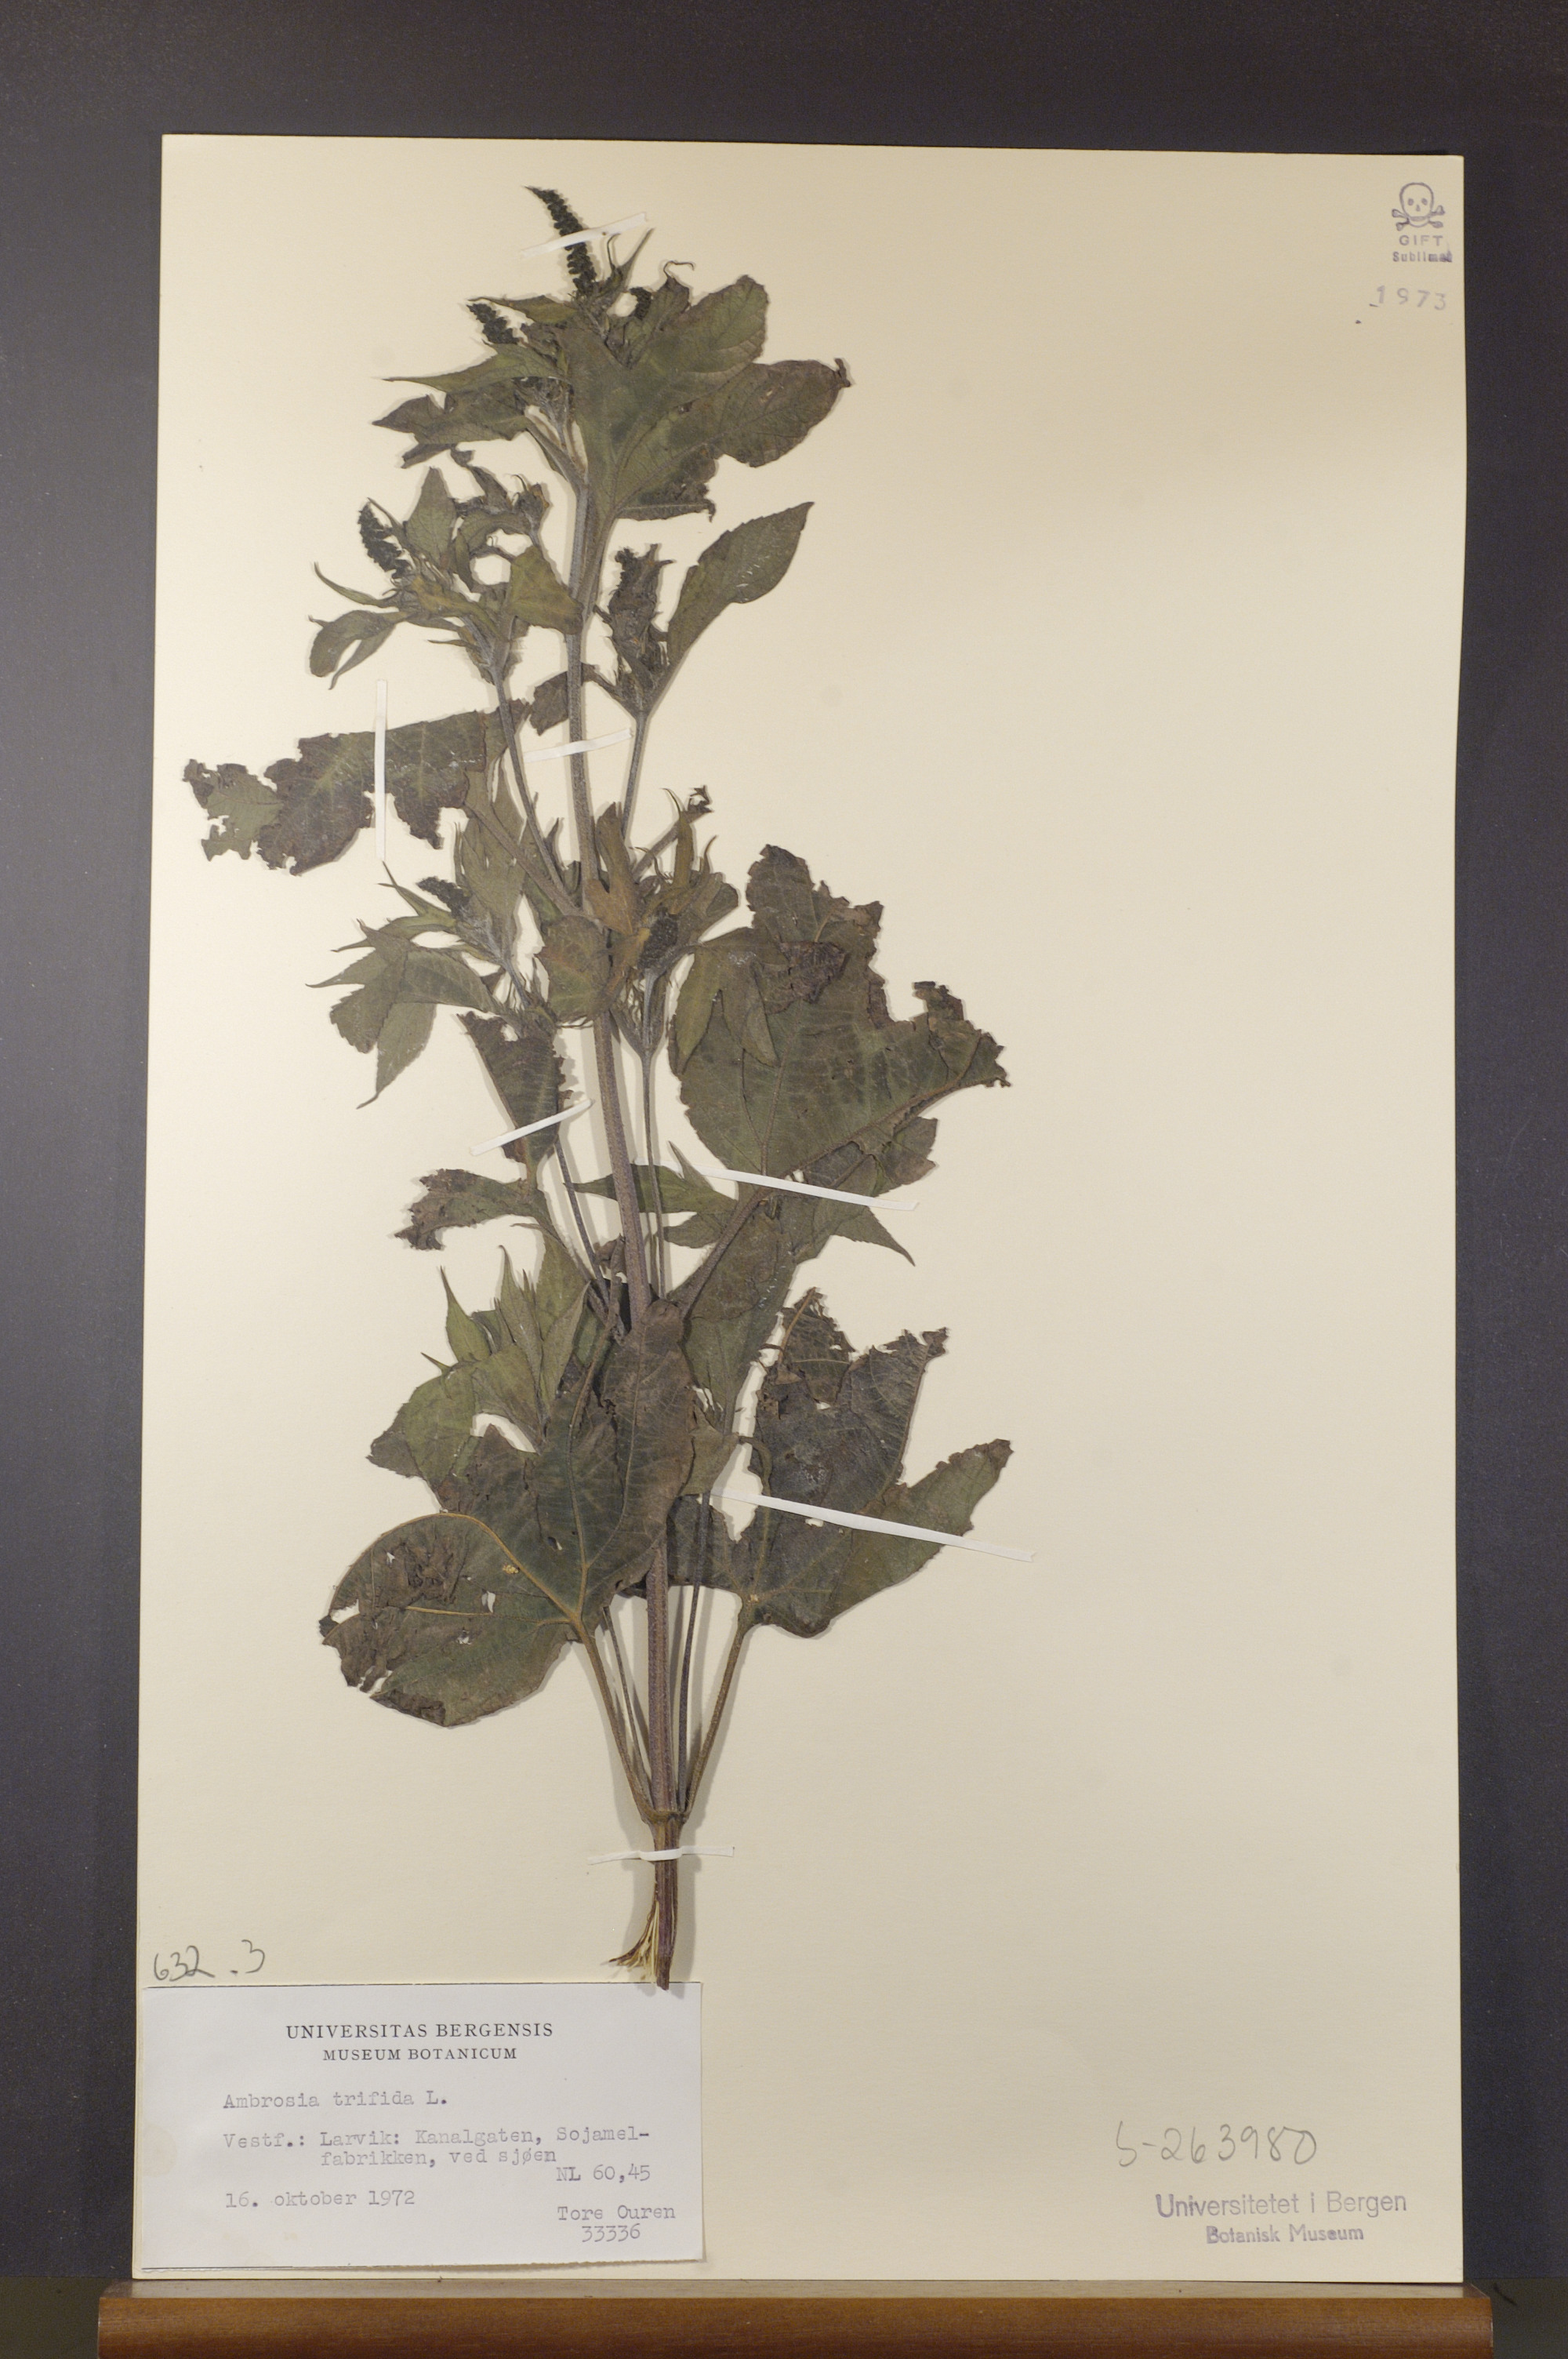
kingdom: Plantae
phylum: Tracheophyta
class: Magnoliopsida
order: Asterales
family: Asteraceae
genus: Ambrosia
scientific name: Ambrosia trifida
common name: Giant ragweed
